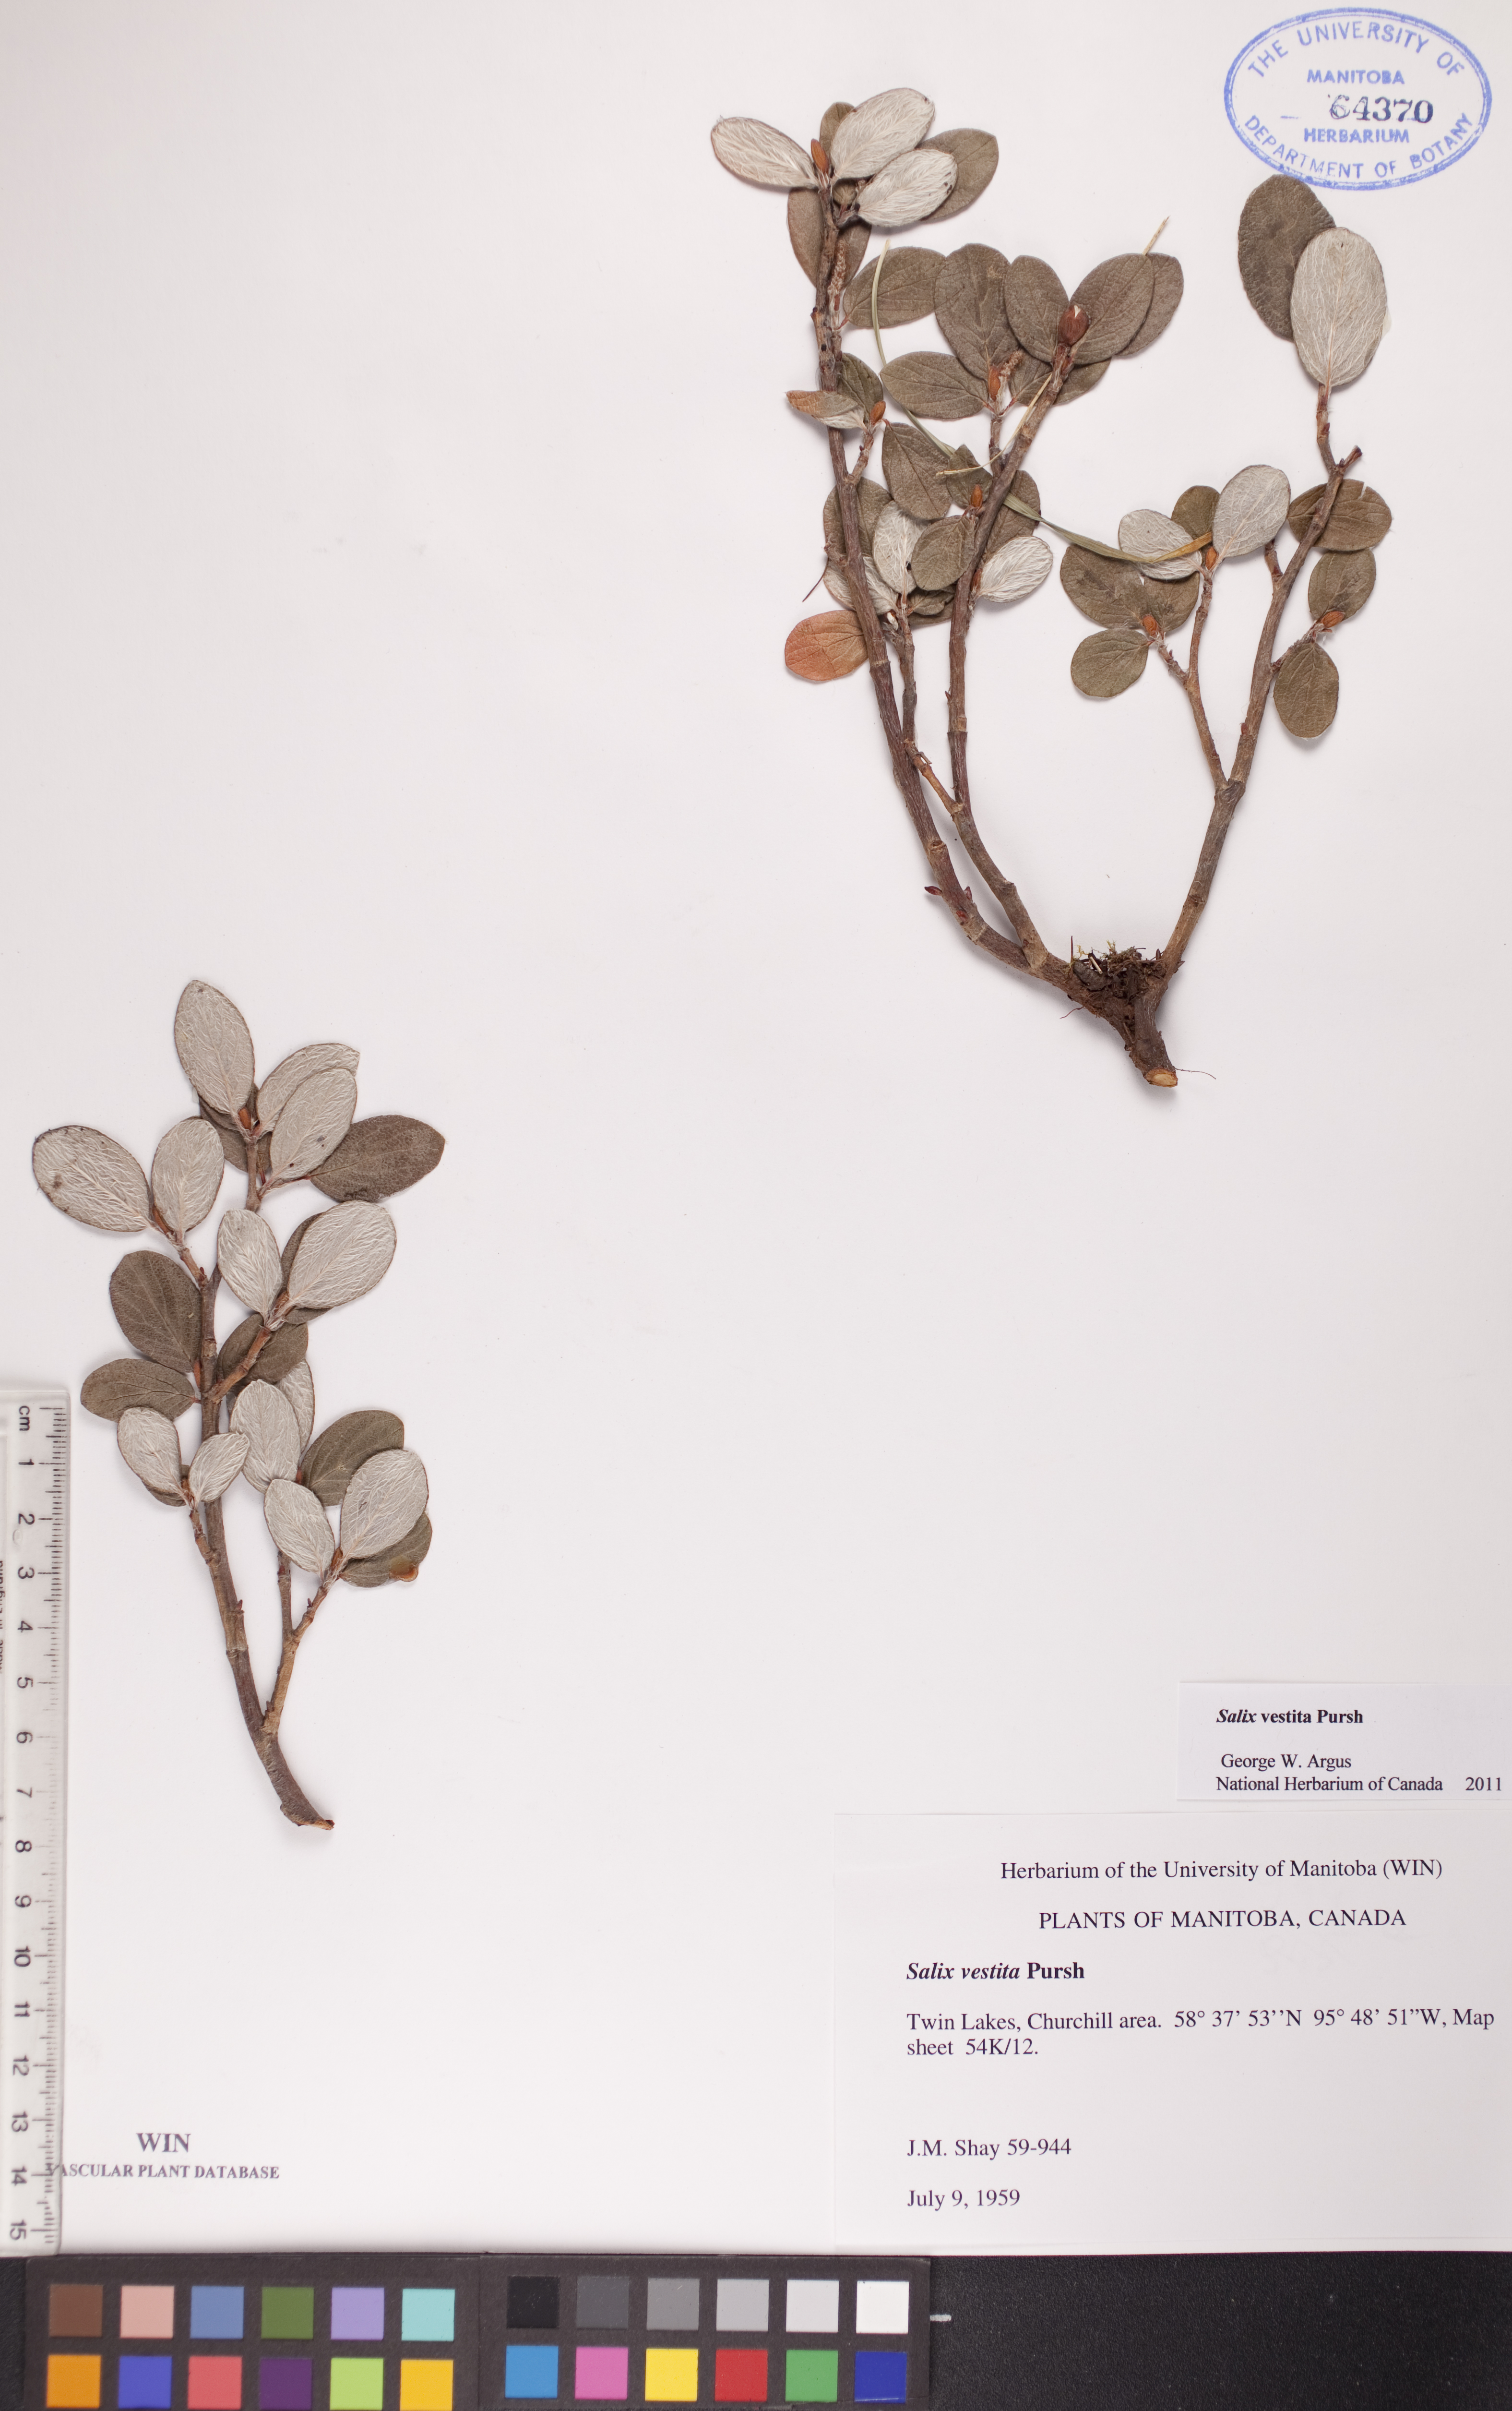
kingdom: Plantae
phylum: Tracheophyta
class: Magnoliopsida
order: Malpighiales
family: Salicaceae
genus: Salix
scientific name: Salix vestita
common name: Hairy willow
